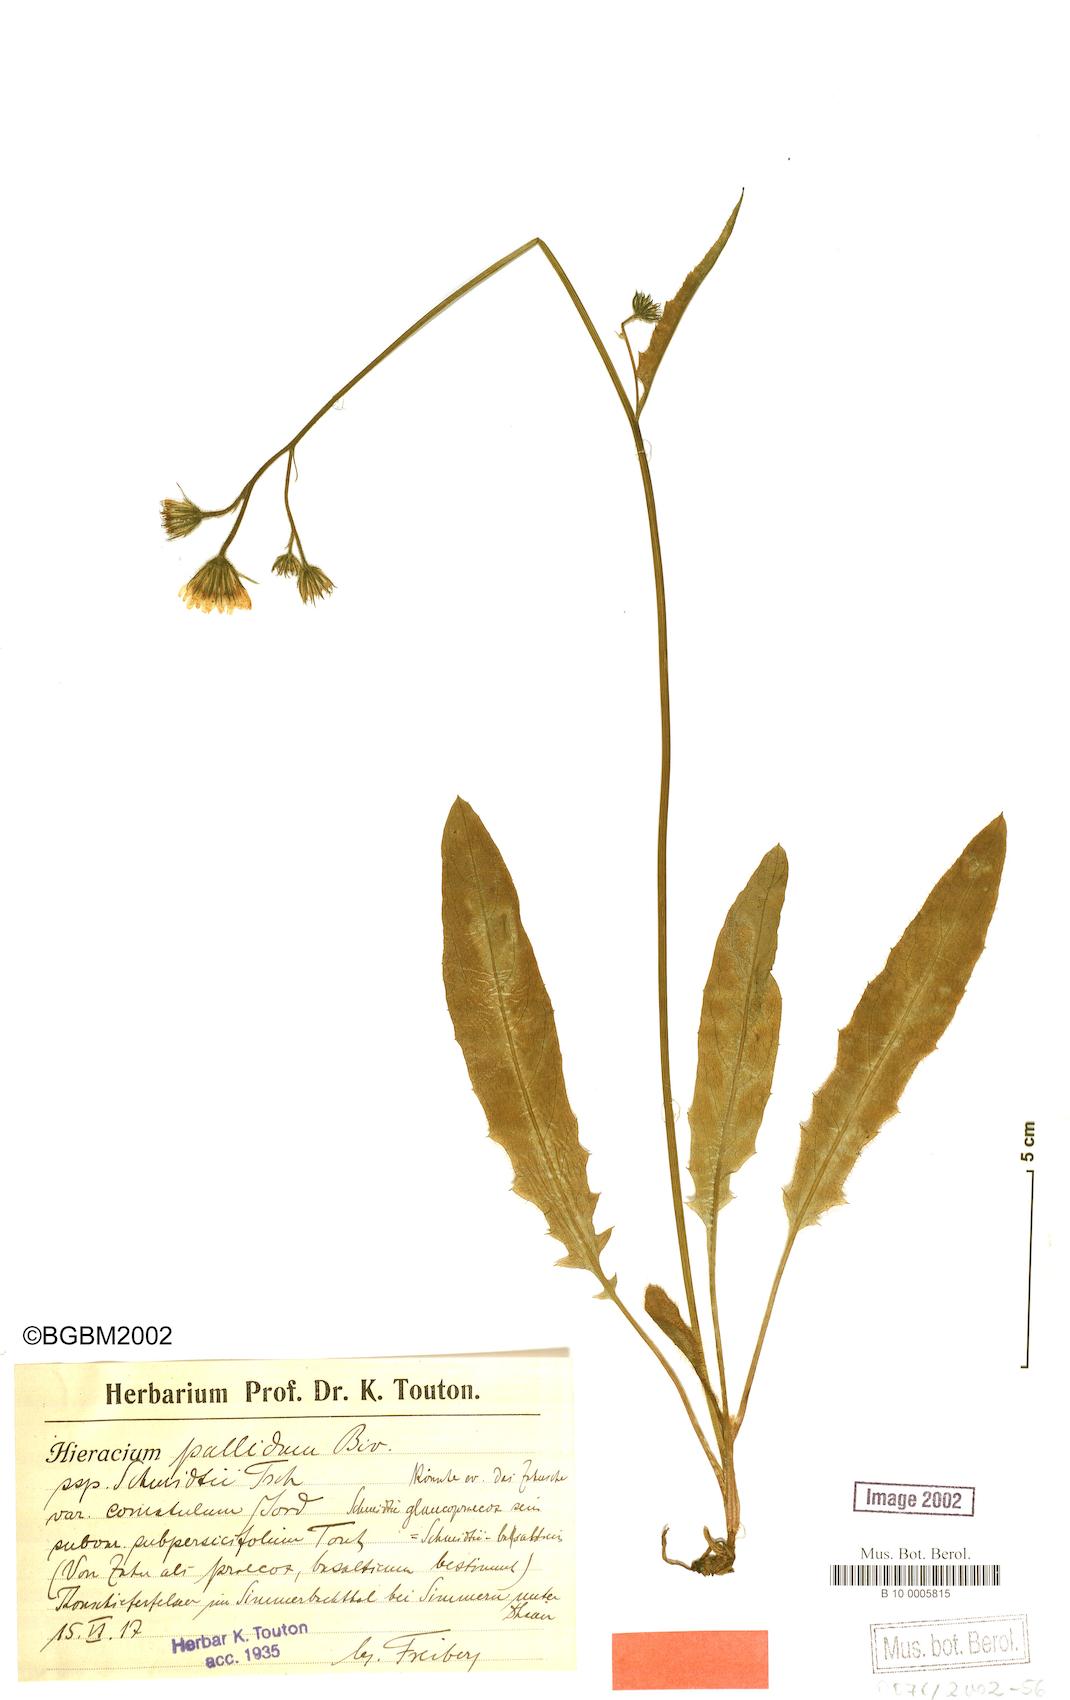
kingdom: Plantae
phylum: Tracheophyta
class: Magnoliopsida
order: Asterales
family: Asteraceae
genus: Hieracium
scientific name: Hieracium pallidum
